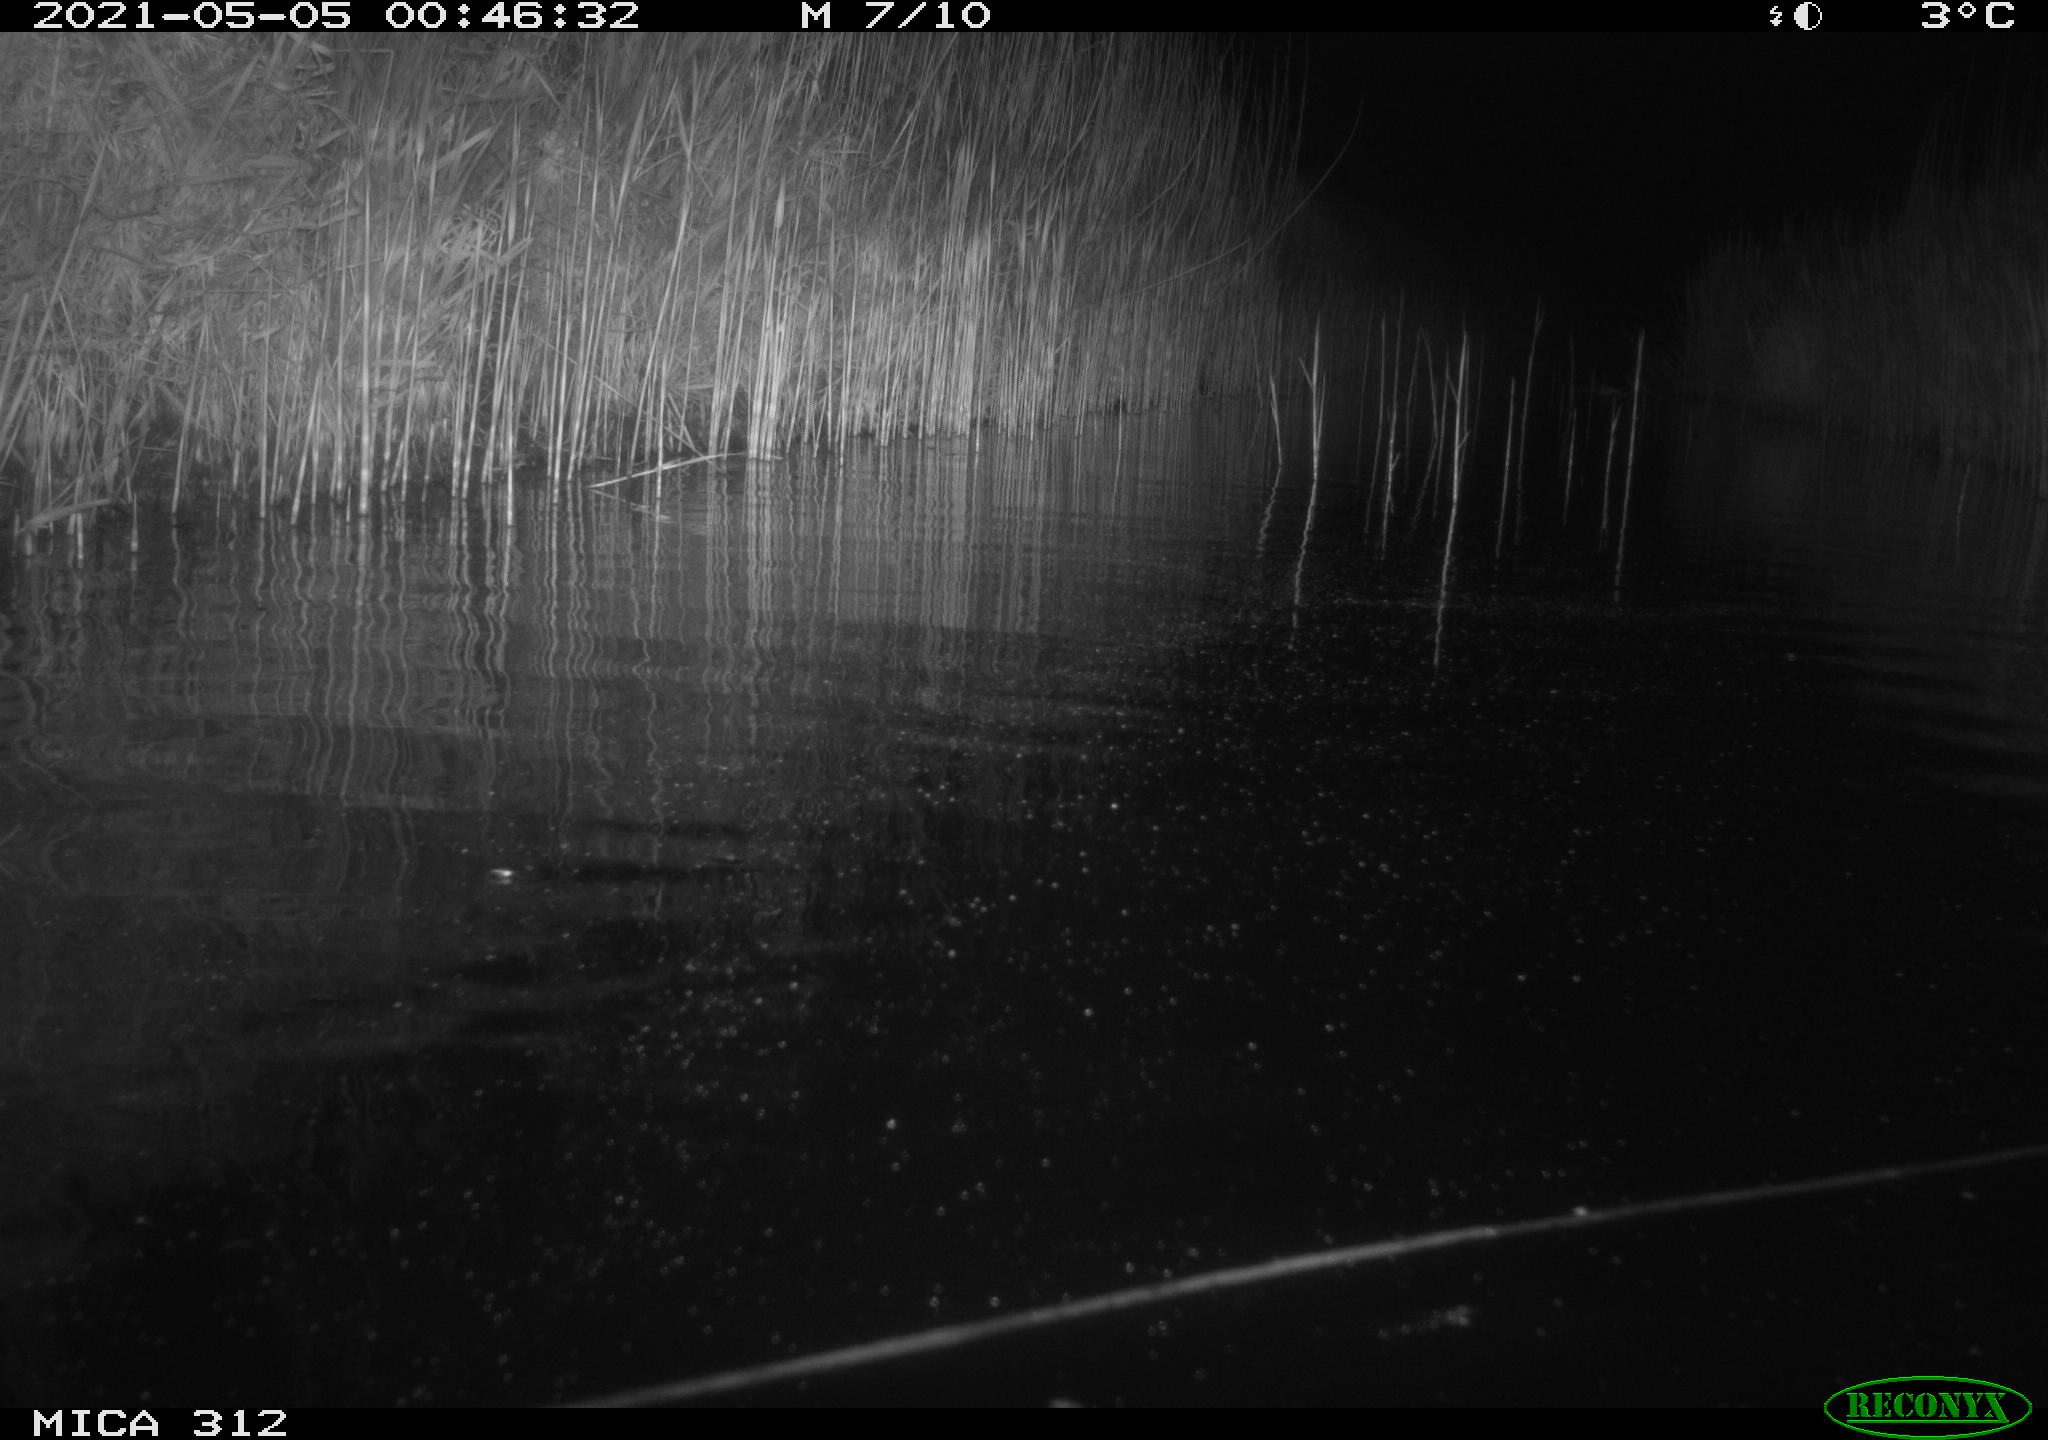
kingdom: Animalia
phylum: Chordata
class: Mammalia
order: Rodentia
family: Cricetidae
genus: Ondatra
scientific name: Ondatra zibethicus
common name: Muskrat
